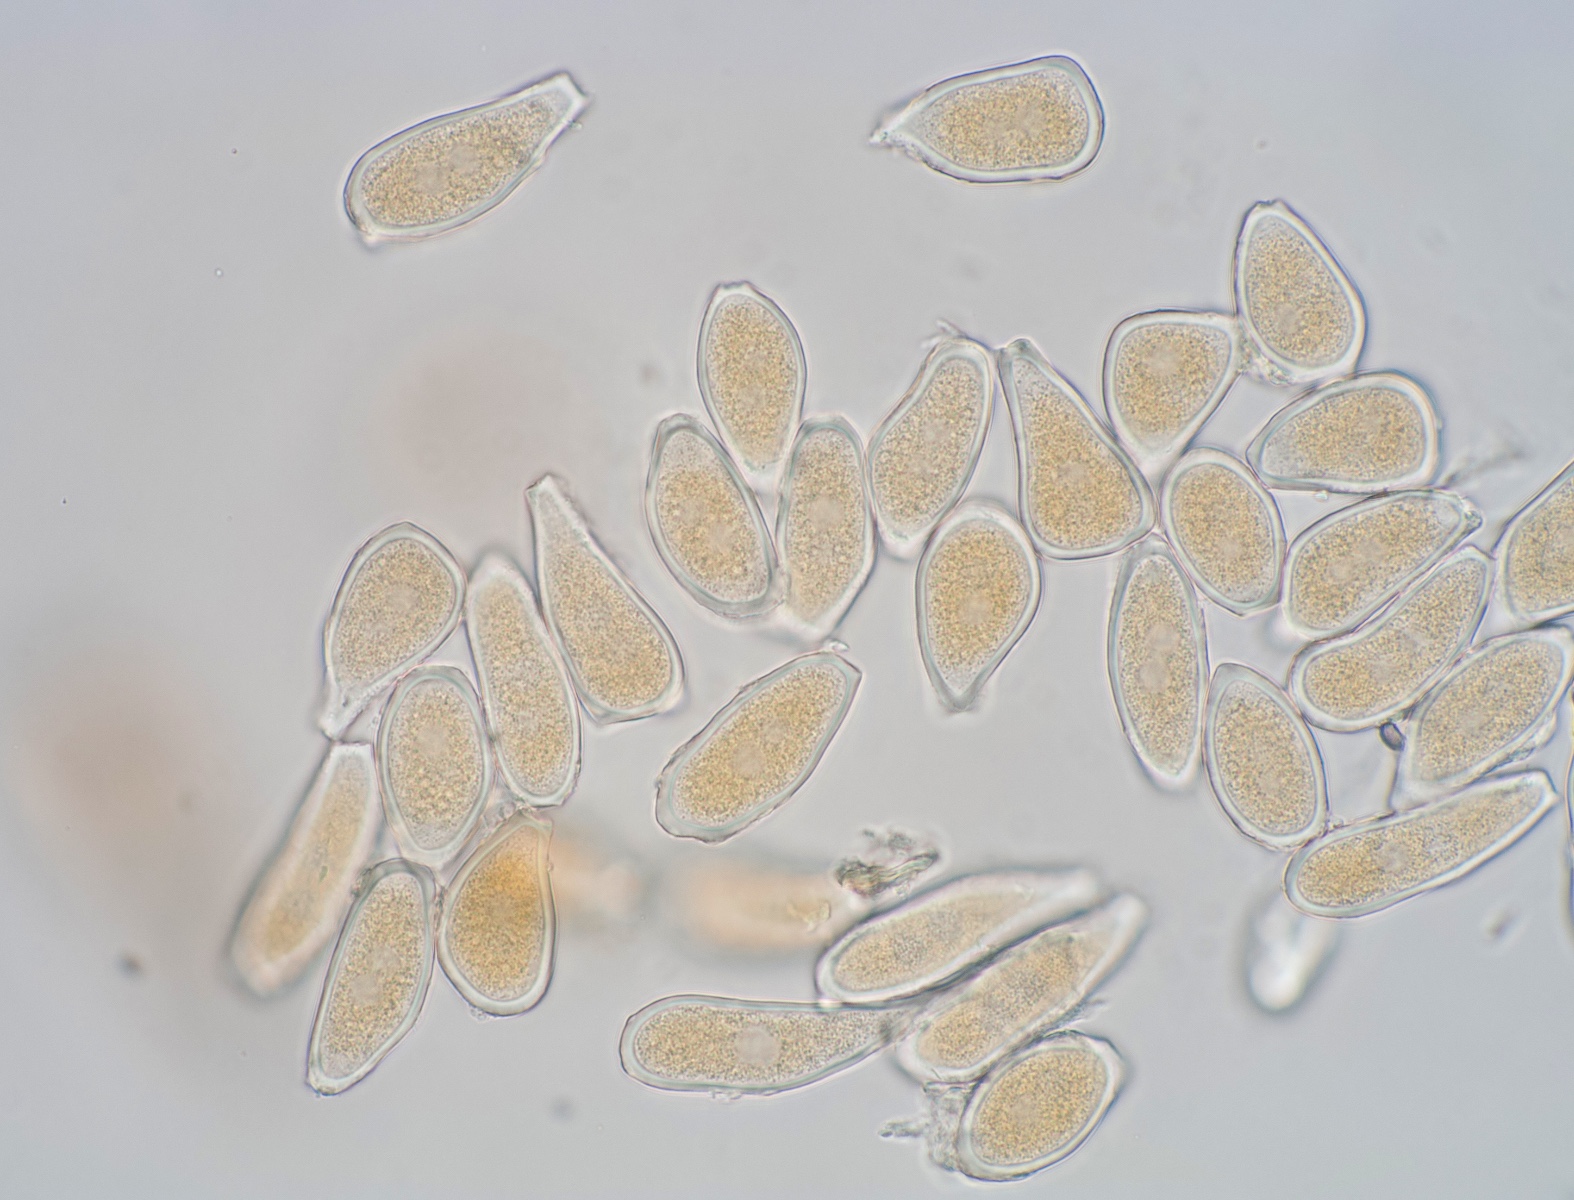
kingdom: Fungi
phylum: Basidiomycota
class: Pucciniomycetes
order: Pucciniales
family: Pucciniaceae
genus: Puccinia
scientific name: Puccinia luzulae
